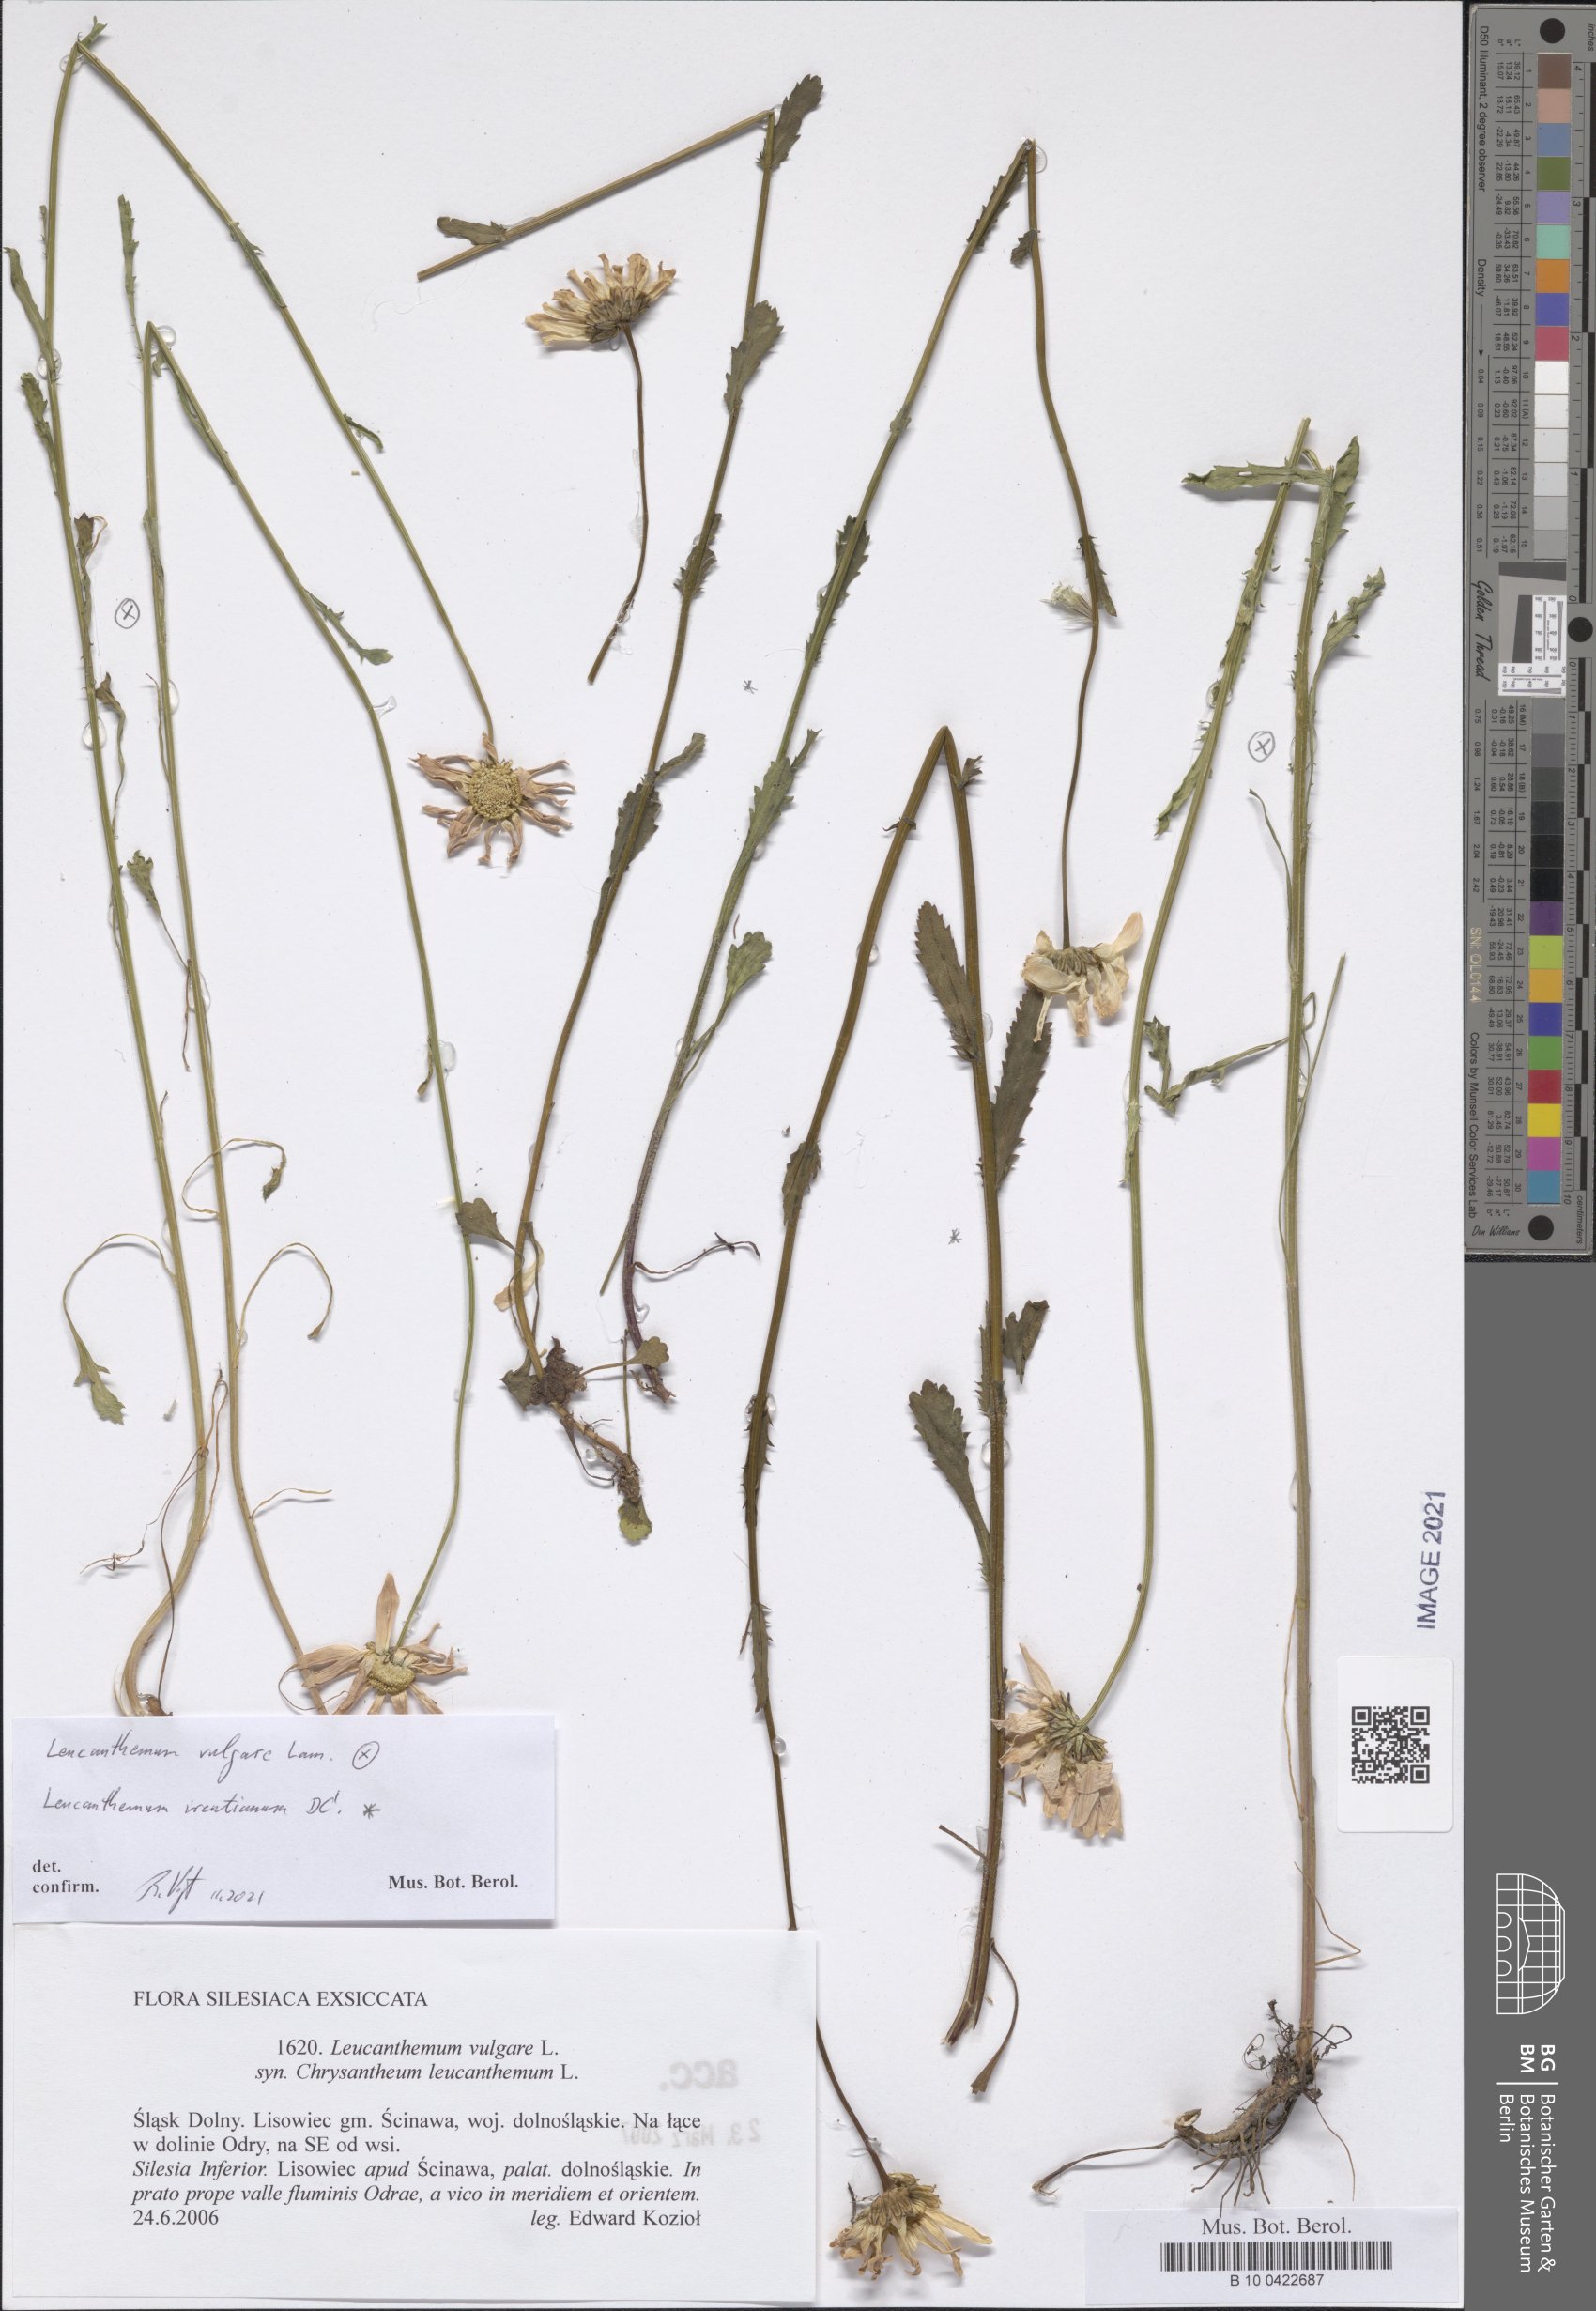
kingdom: Plantae
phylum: Tracheophyta
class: Magnoliopsida
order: Asterales
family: Asteraceae
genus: Leucanthemum
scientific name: Leucanthemum vulgare
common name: Oxeye daisy
